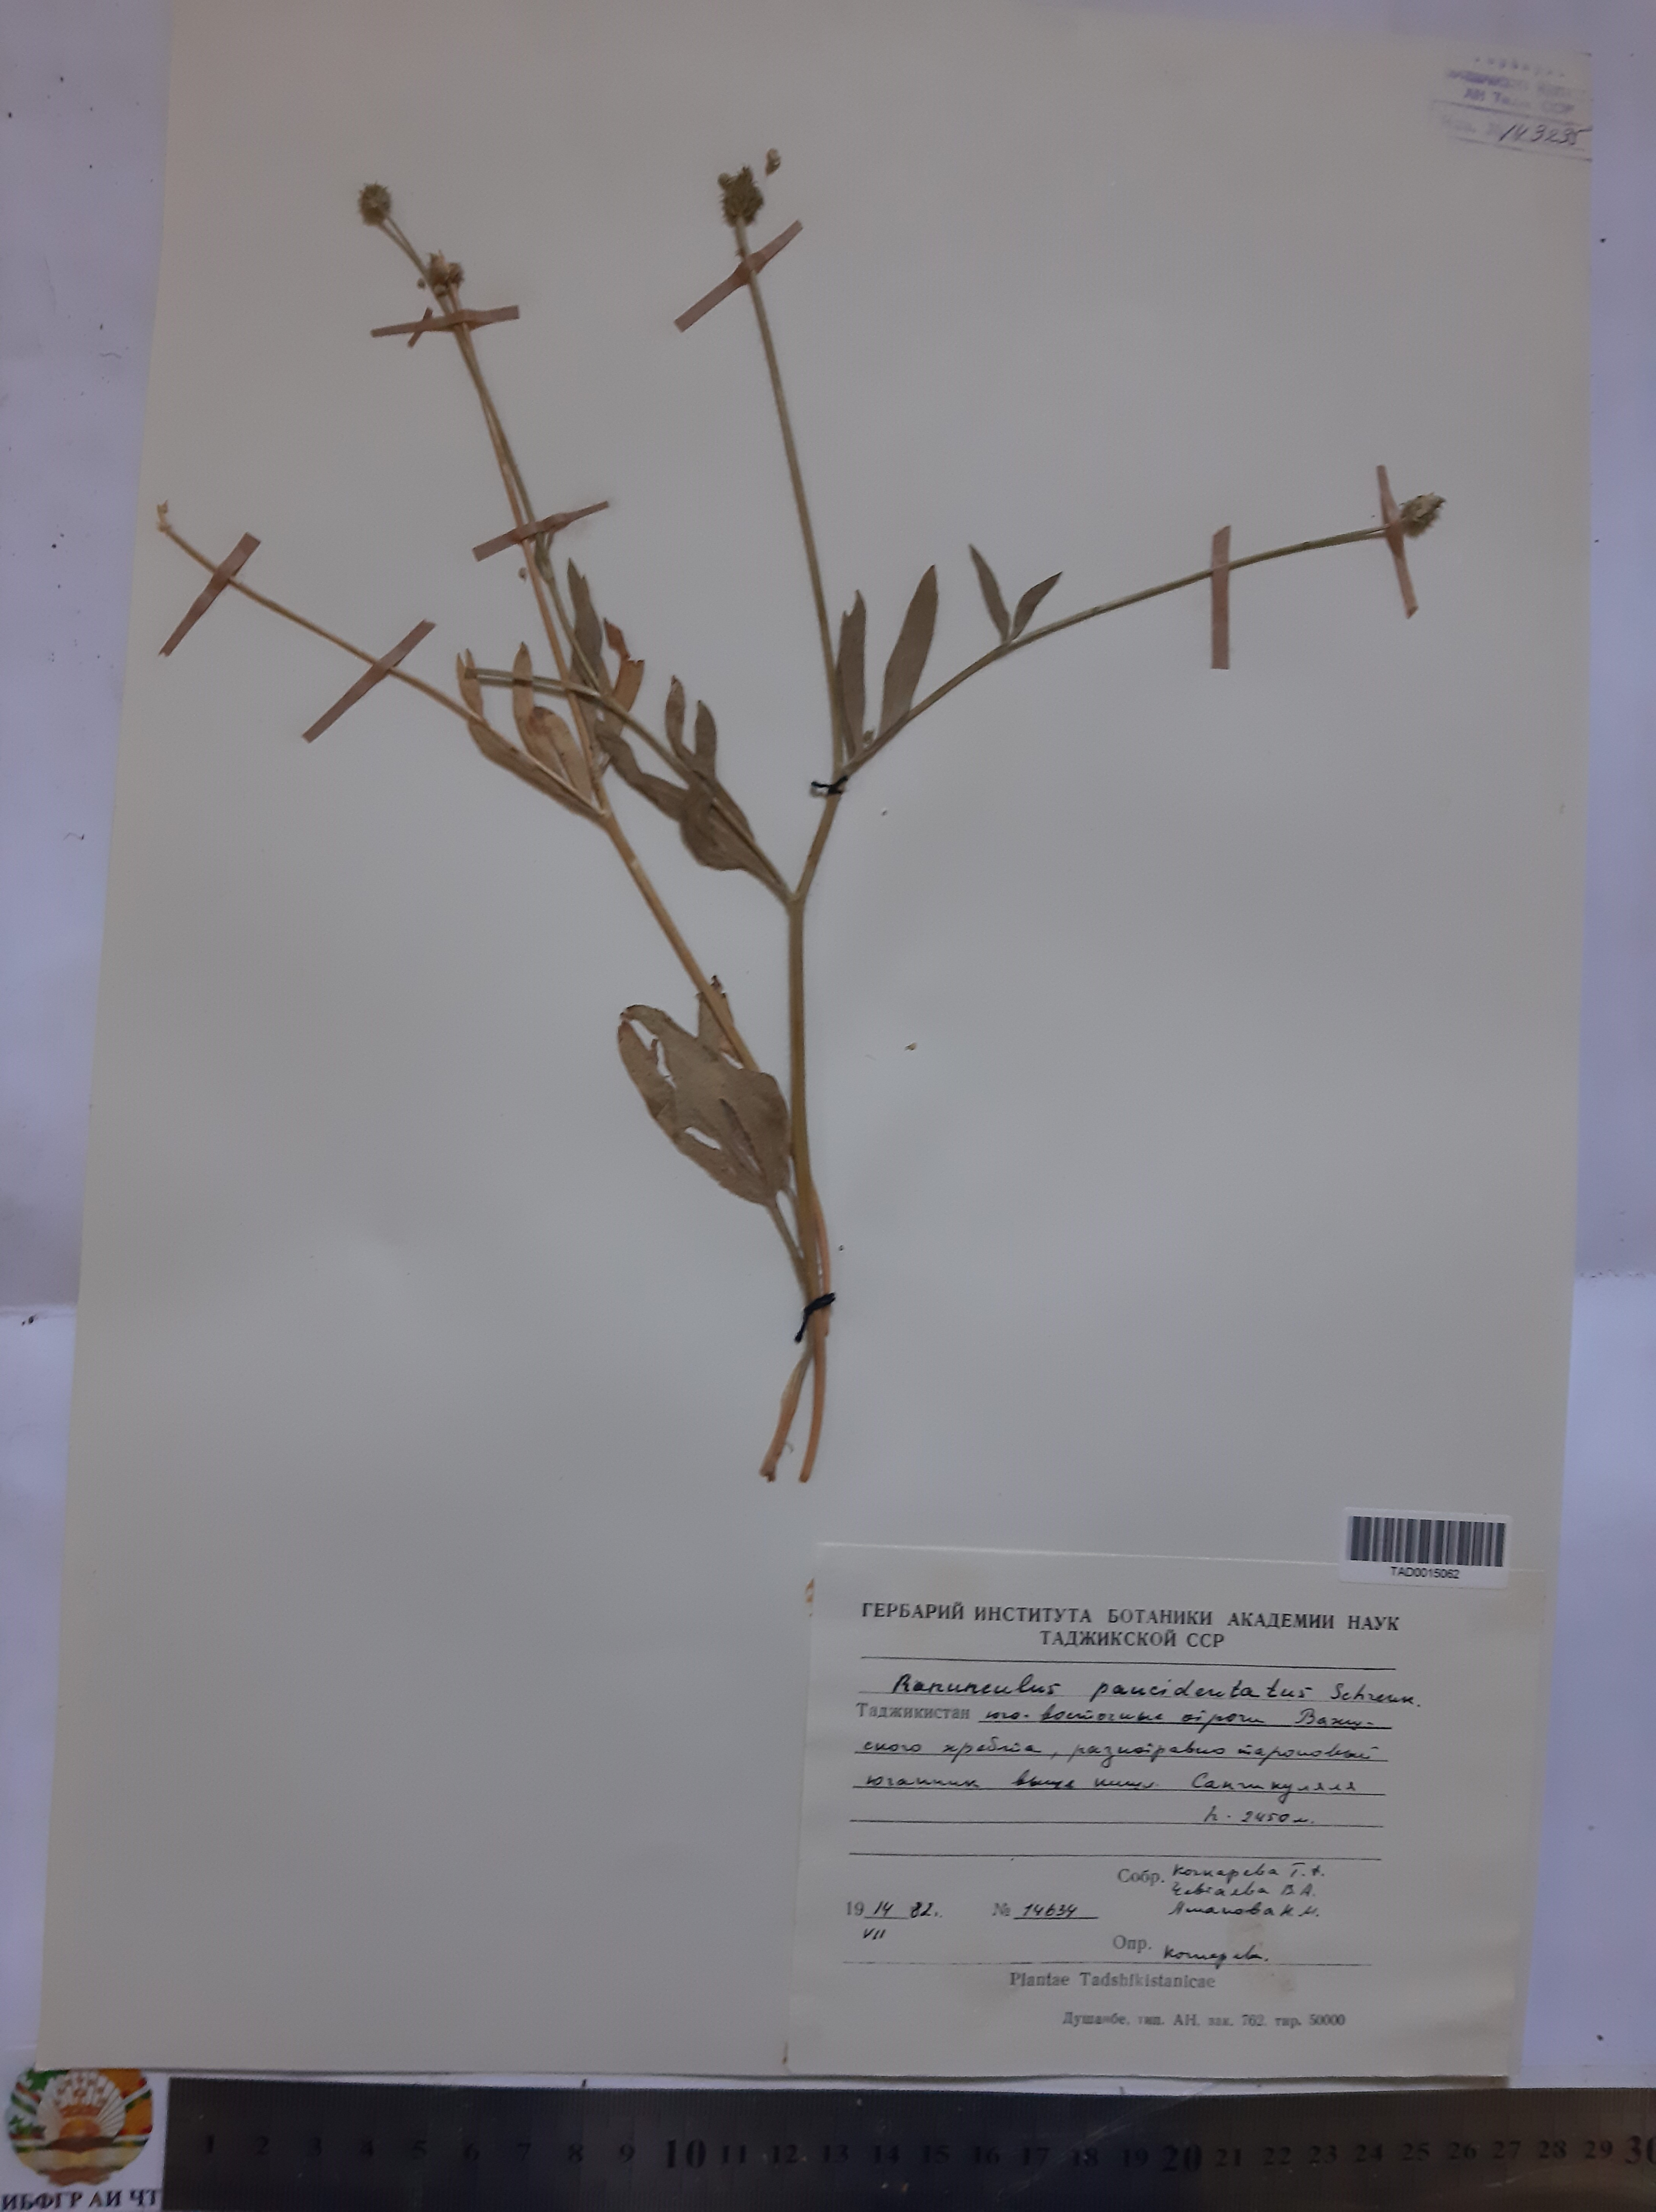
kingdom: Plantae
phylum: Tracheophyta
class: Magnoliopsida
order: Ranunculales
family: Ranunculaceae
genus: Ranunculus
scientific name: Ranunculus paucidentatus
